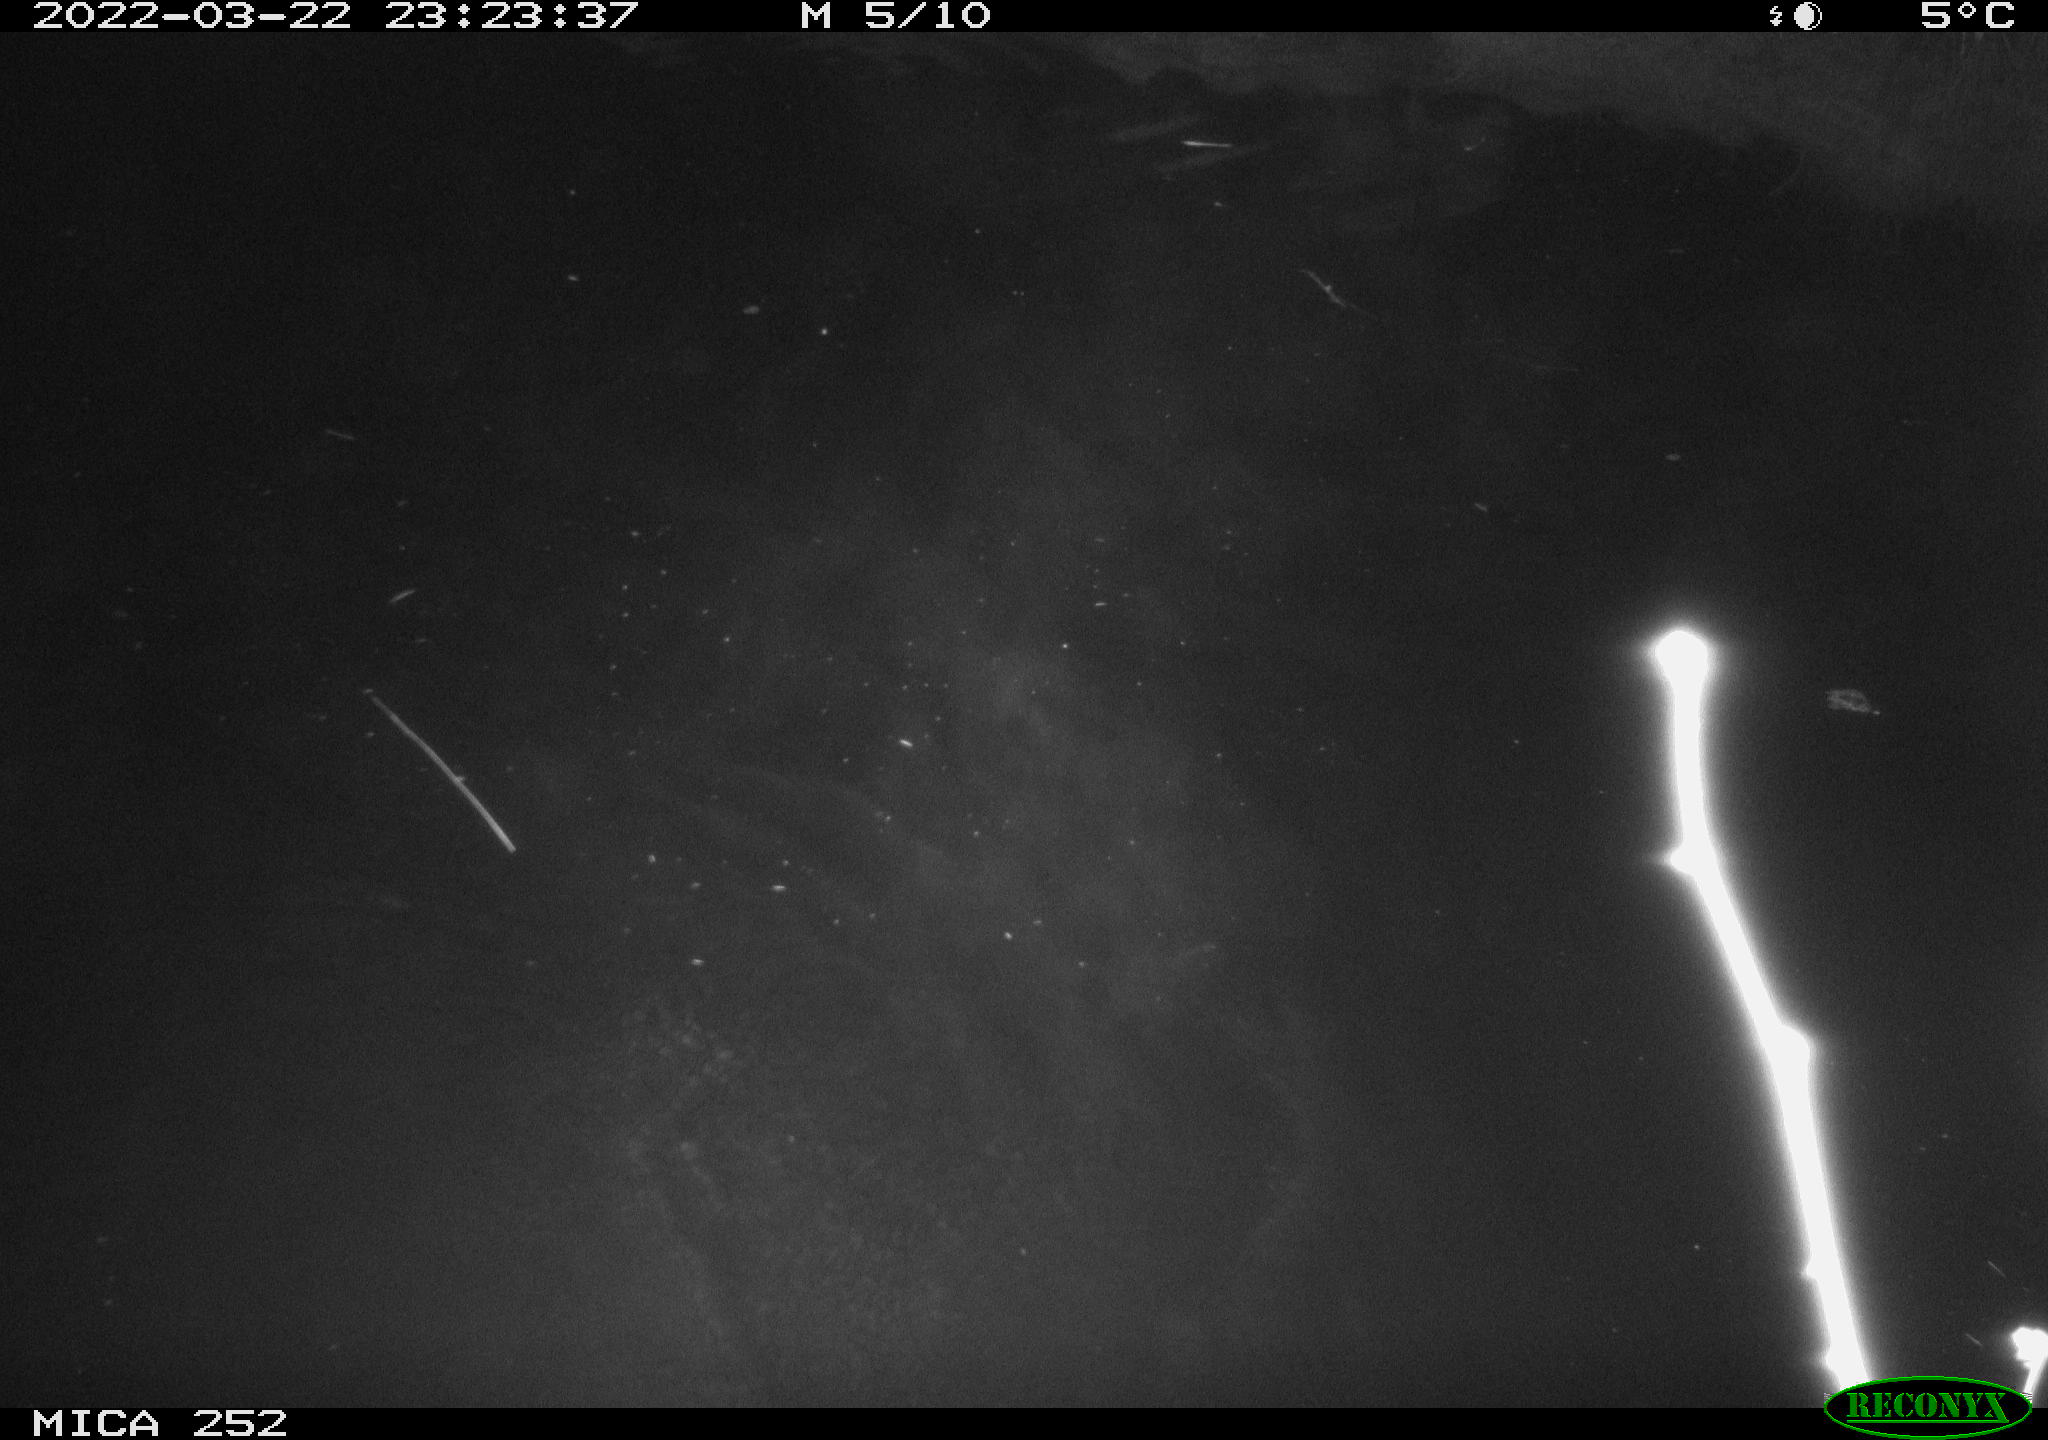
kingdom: Animalia
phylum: Chordata
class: Mammalia
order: Rodentia
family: Castoridae
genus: Castor
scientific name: Castor fiber
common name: Eurasian beaver
